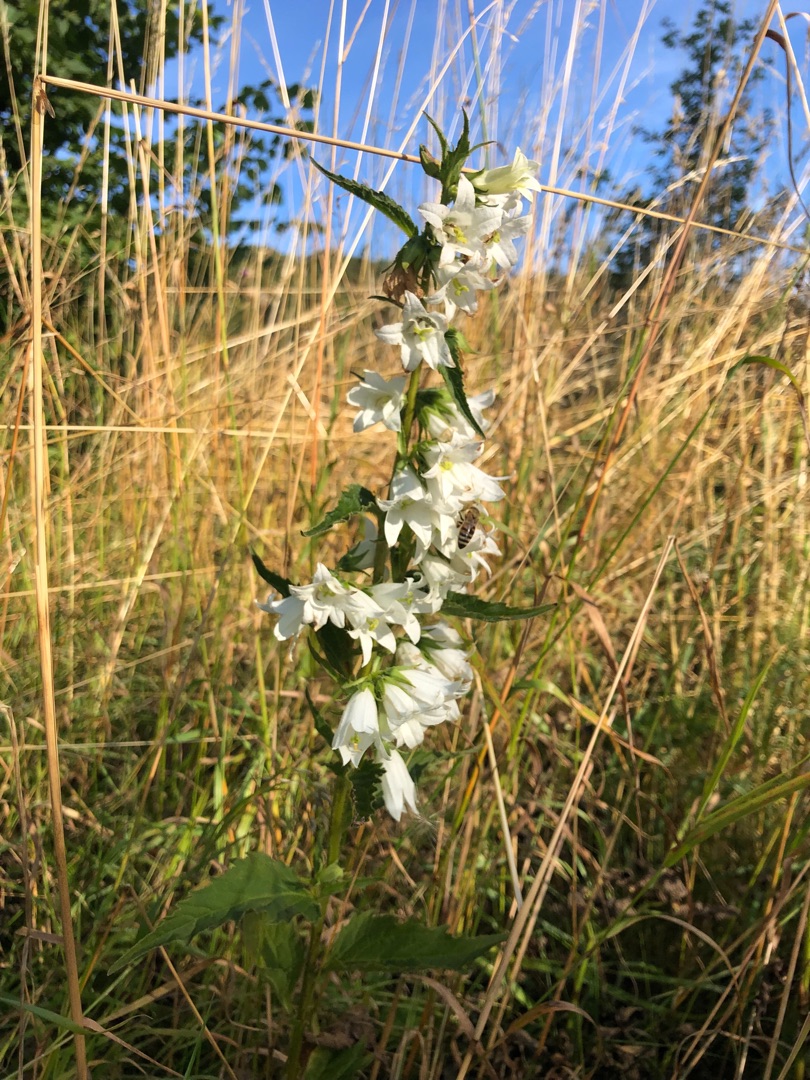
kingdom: Plantae
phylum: Tracheophyta
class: Magnoliopsida
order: Asterales
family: Campanulaceae
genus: Campanula
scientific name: Campanula trachelium
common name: Nælde-klokke
